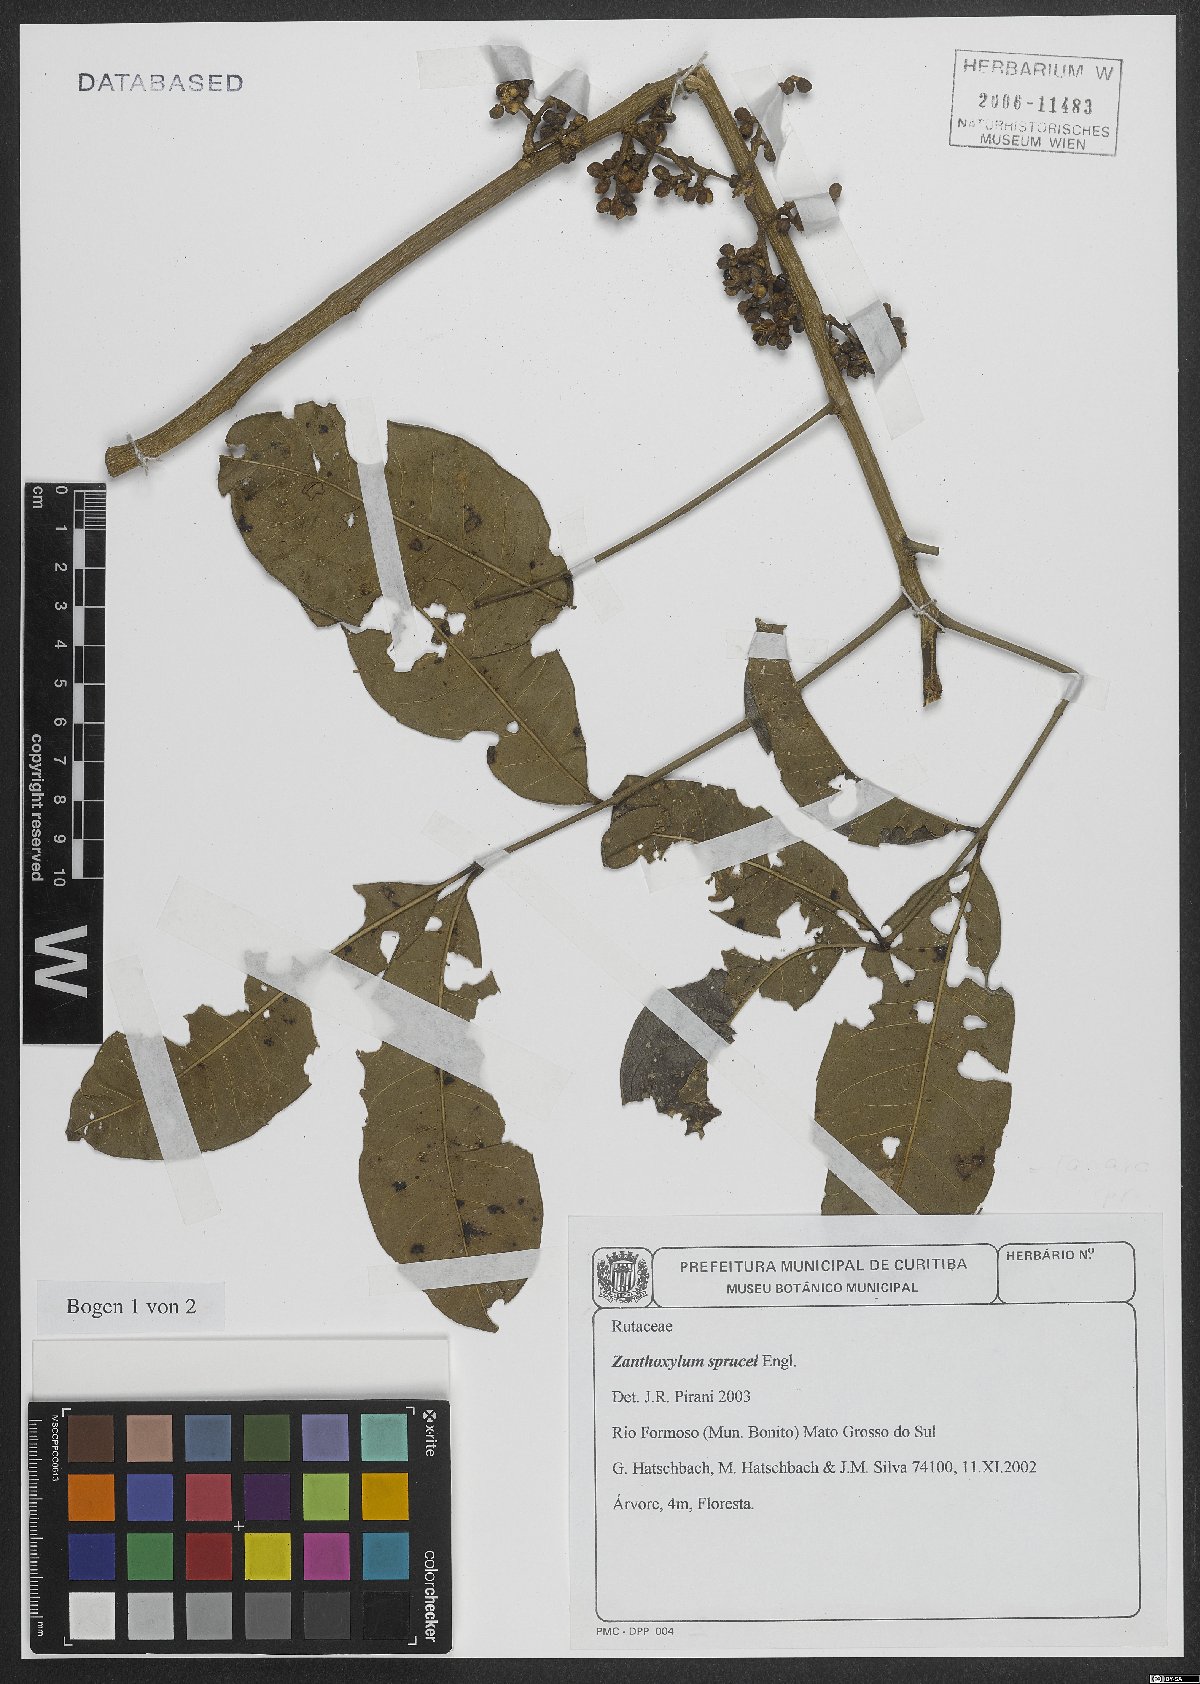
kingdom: Plantae
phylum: Tracheophyta
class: Magnoliopsida
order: Sapindales
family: Rutaceae
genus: Zanthoxylum
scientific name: Zanthoxylum sprucei
